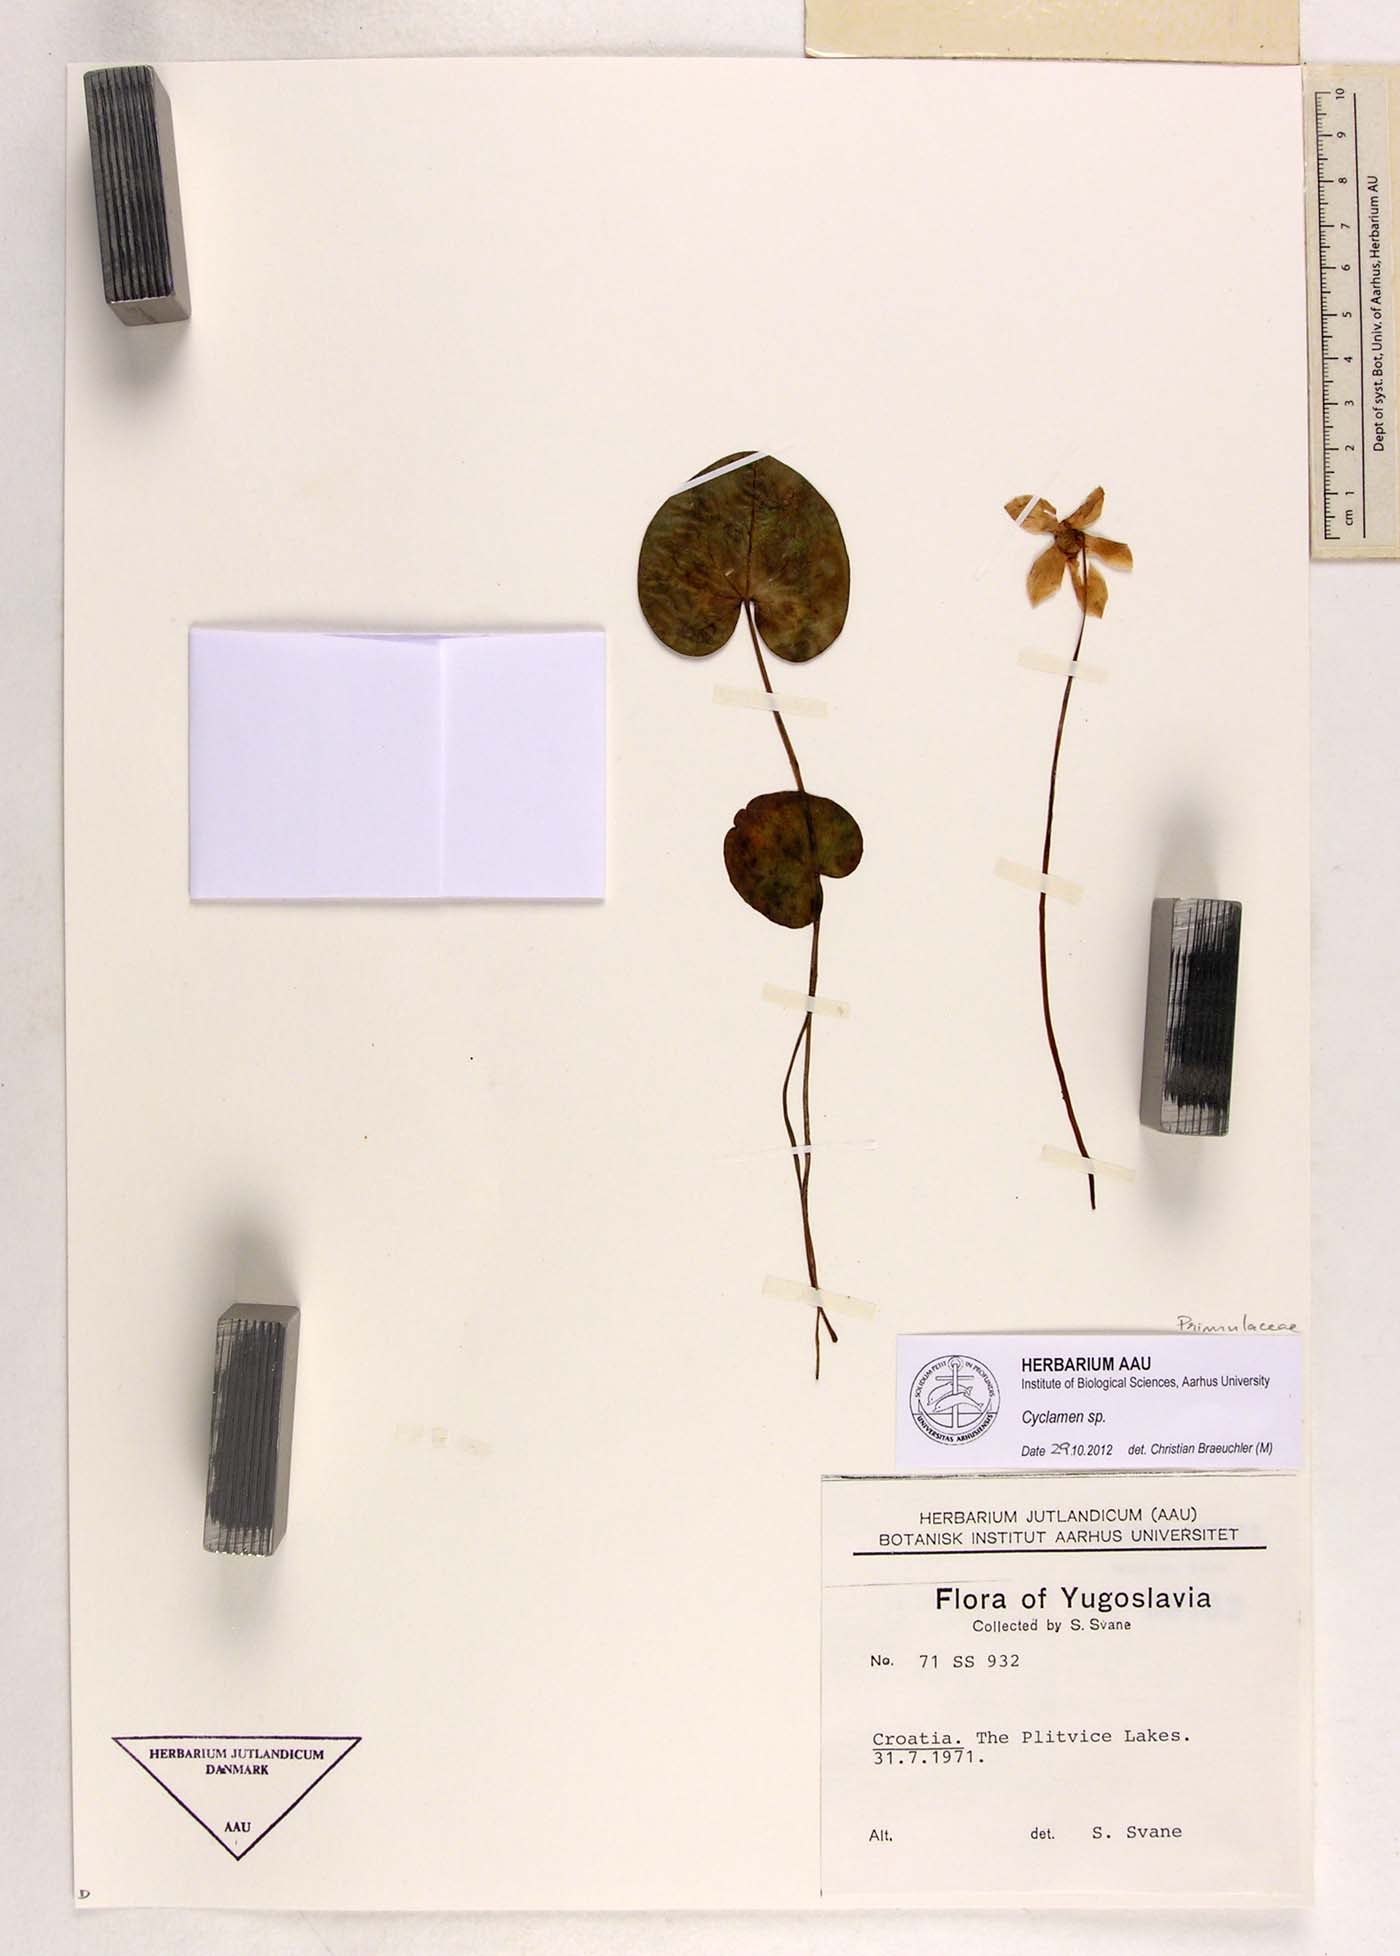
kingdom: Plantae
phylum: Tracheophyta
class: Magnoliopsida
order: Ericales
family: Primulaceae
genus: Cyclamen
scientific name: Cyclamen
